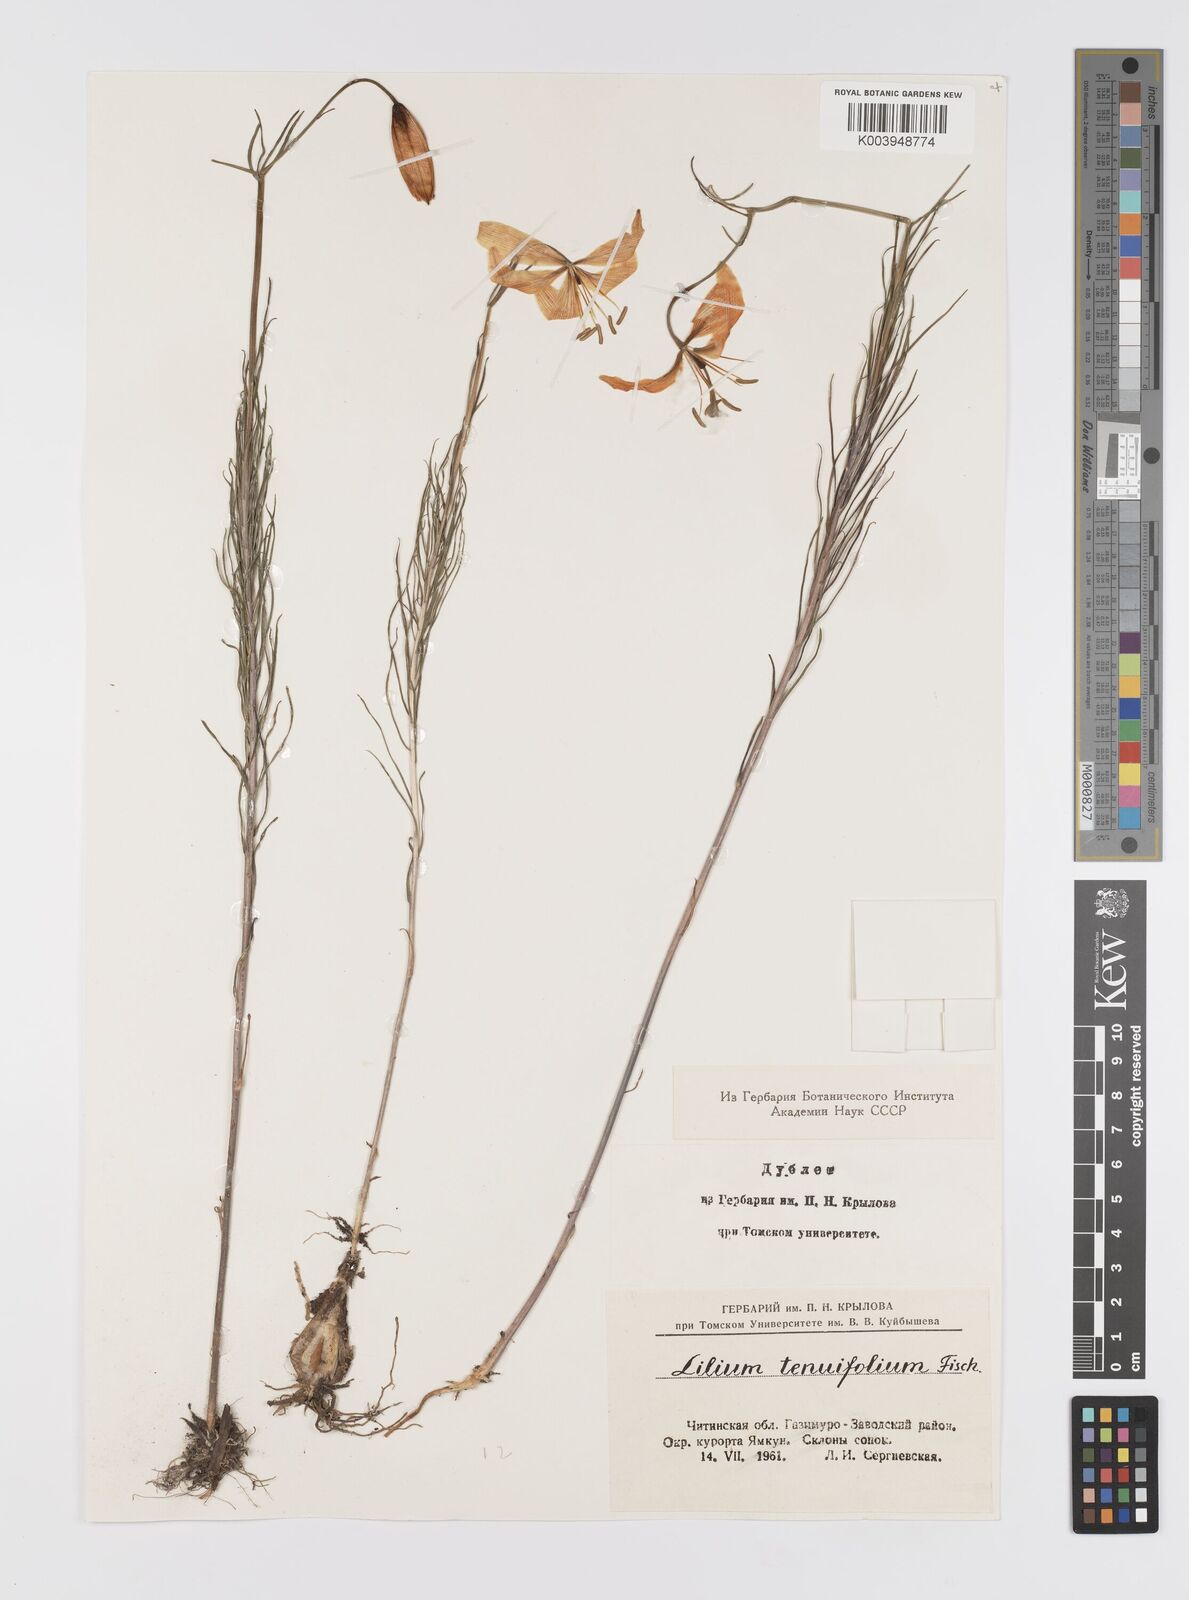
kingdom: Plantae
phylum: Tracheophyta
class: Liliopsida
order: Liliales
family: Liliaceae
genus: Lilium
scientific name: Lilium pumilum
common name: Coral lily
